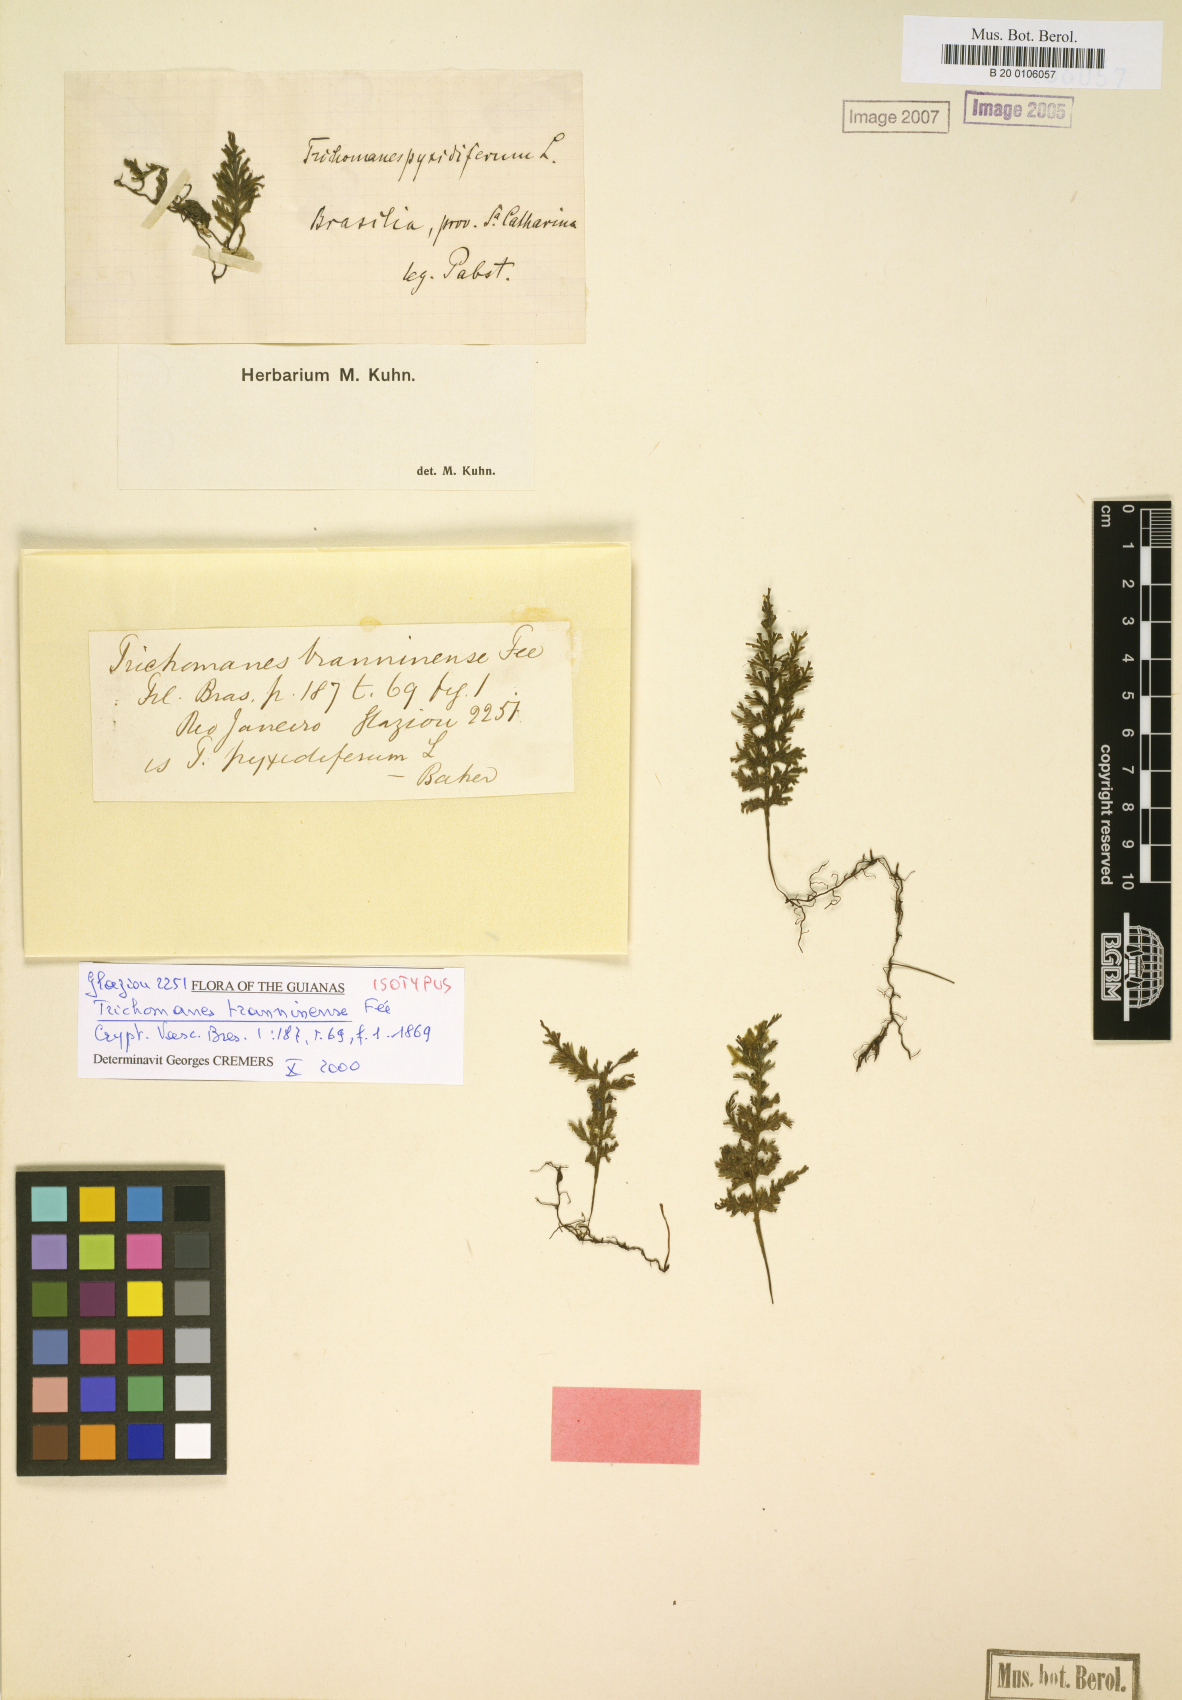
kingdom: Plantae
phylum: Tracheophyta
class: Polypodiopsida
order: Hymenophyllales
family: Hymenophyllaceae
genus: Polyphlebium
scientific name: Polyphlebium pyxidiferum
